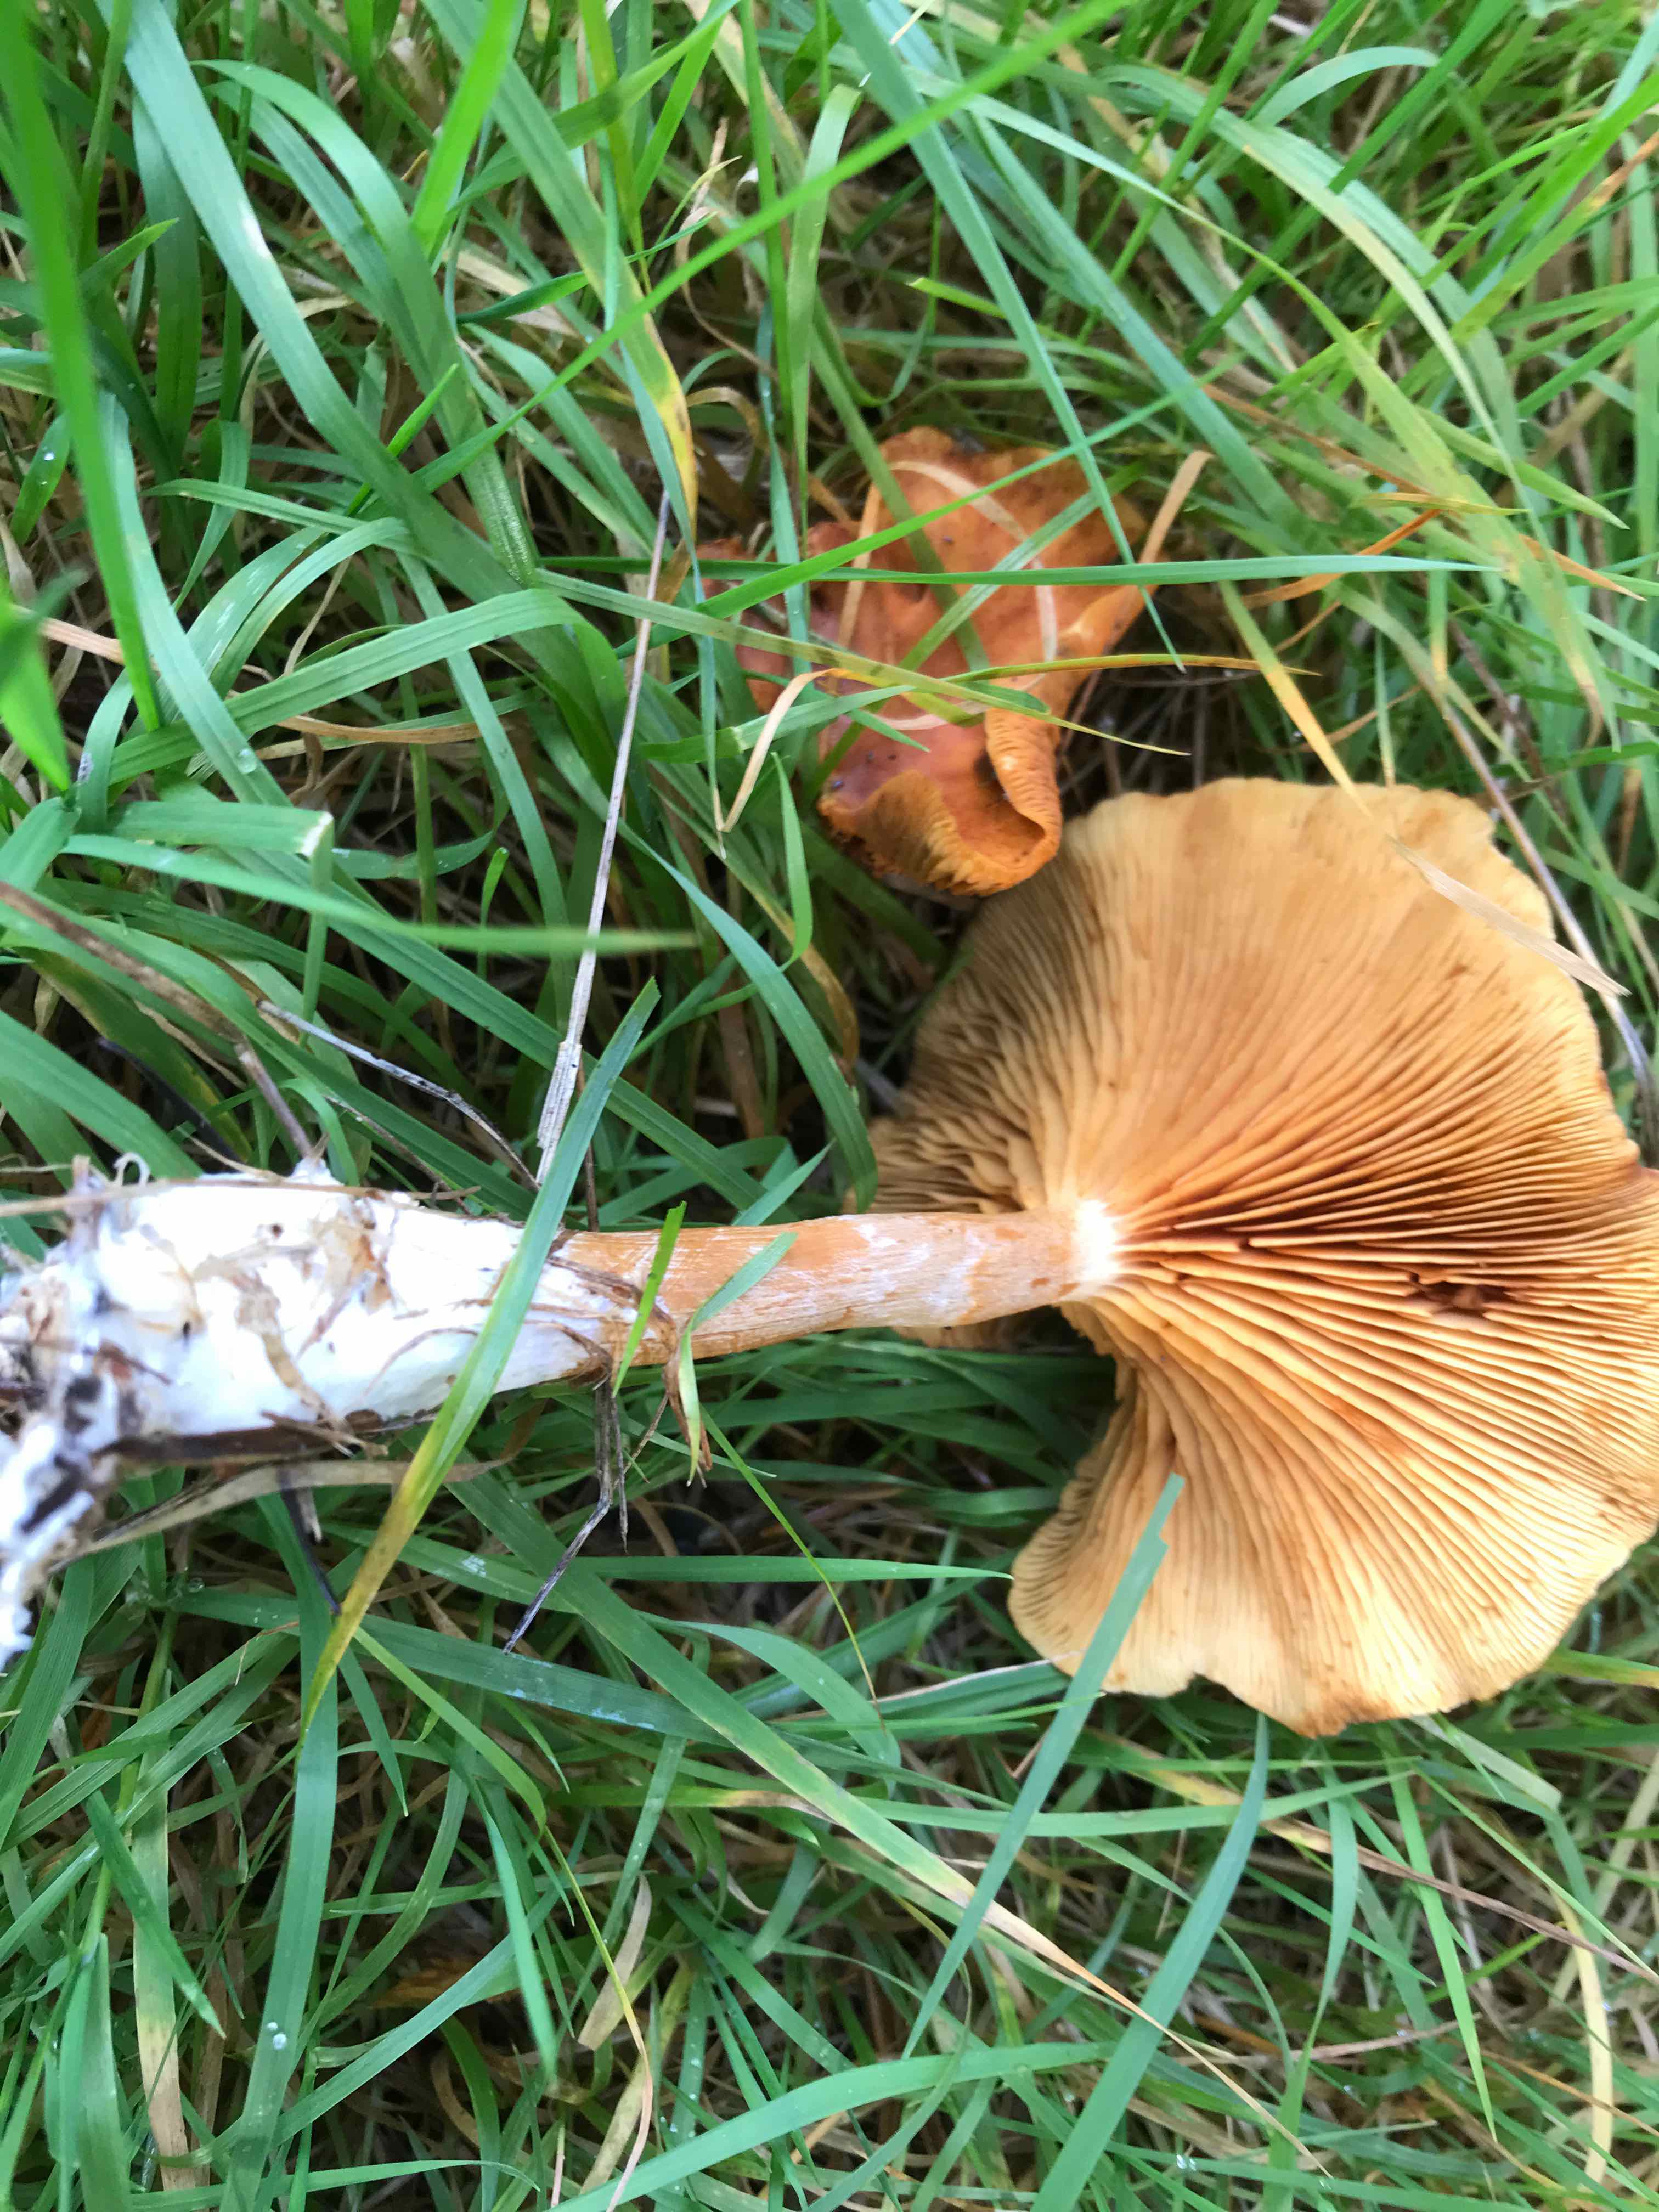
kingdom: Fungi
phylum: Basidiomycota
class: Agaricomycetes
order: Agaricales
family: Hymenogastraceae
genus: Gymnopilus
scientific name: Gymnopilus penetrans
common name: plettet flammehat
